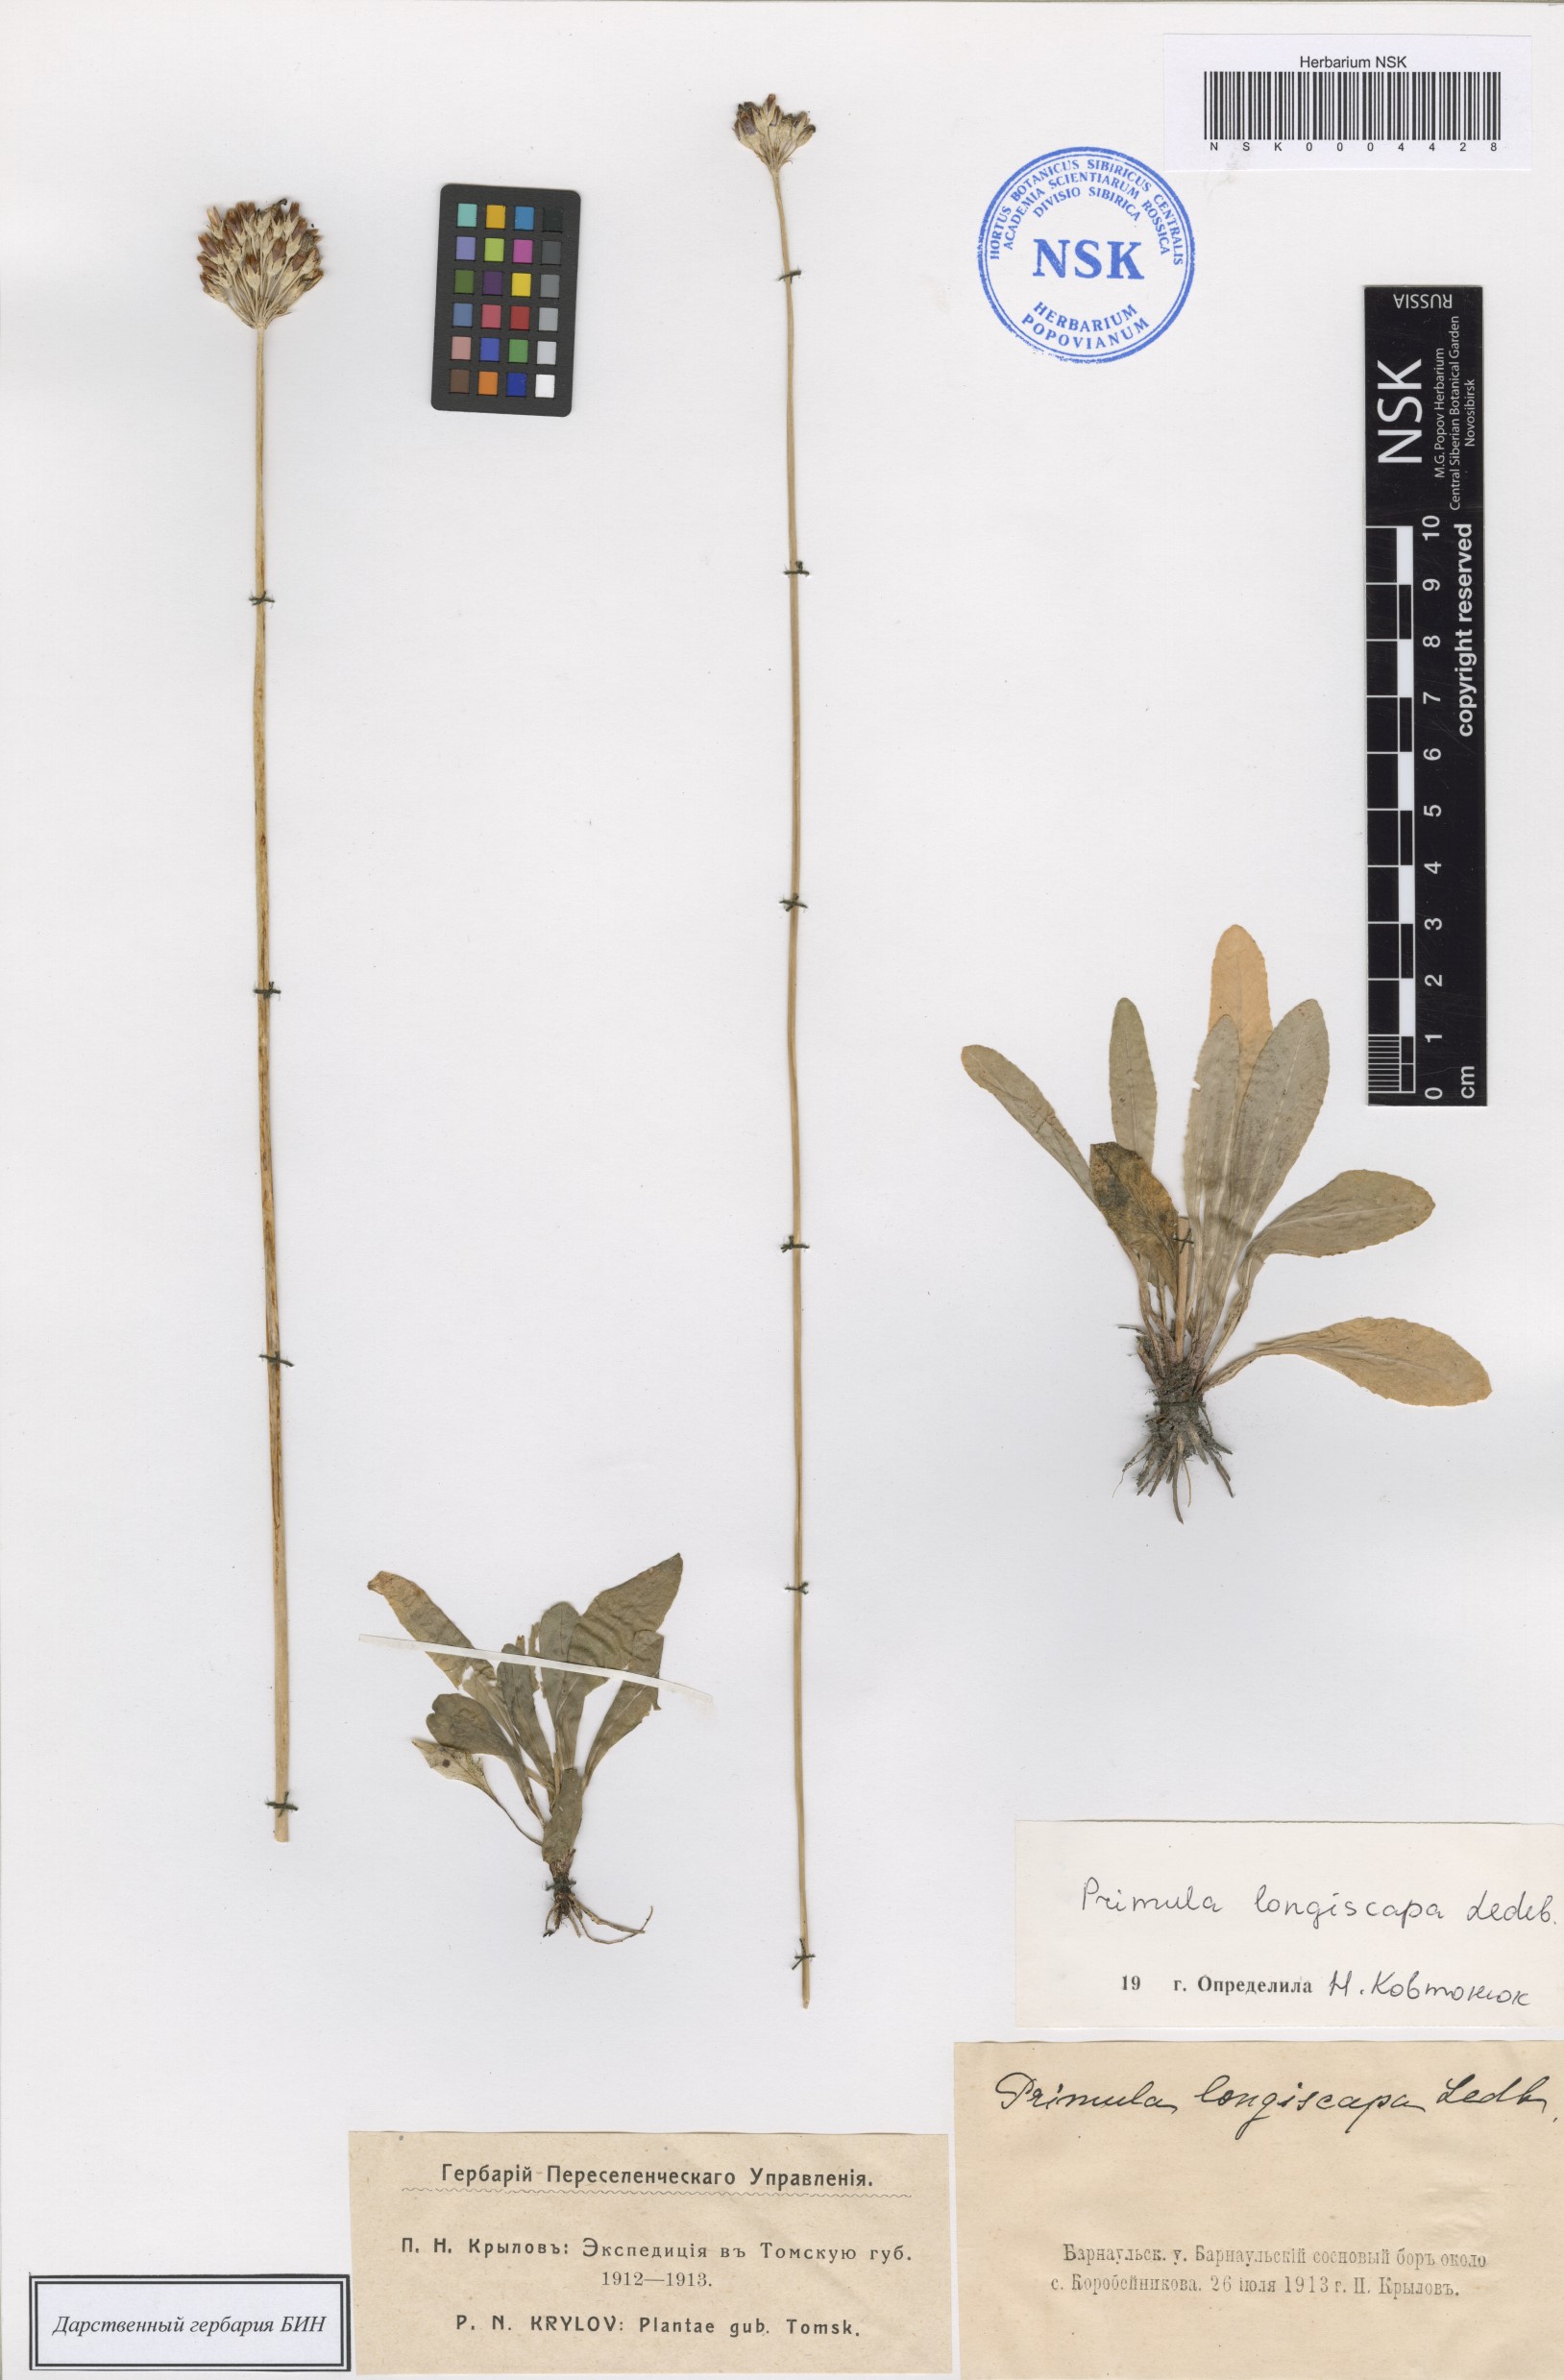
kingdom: Plantae
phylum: Tracheophyta
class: Magnoliopsida
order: Ericales
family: Primulaceae
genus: Primula
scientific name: Primula longiscapa
